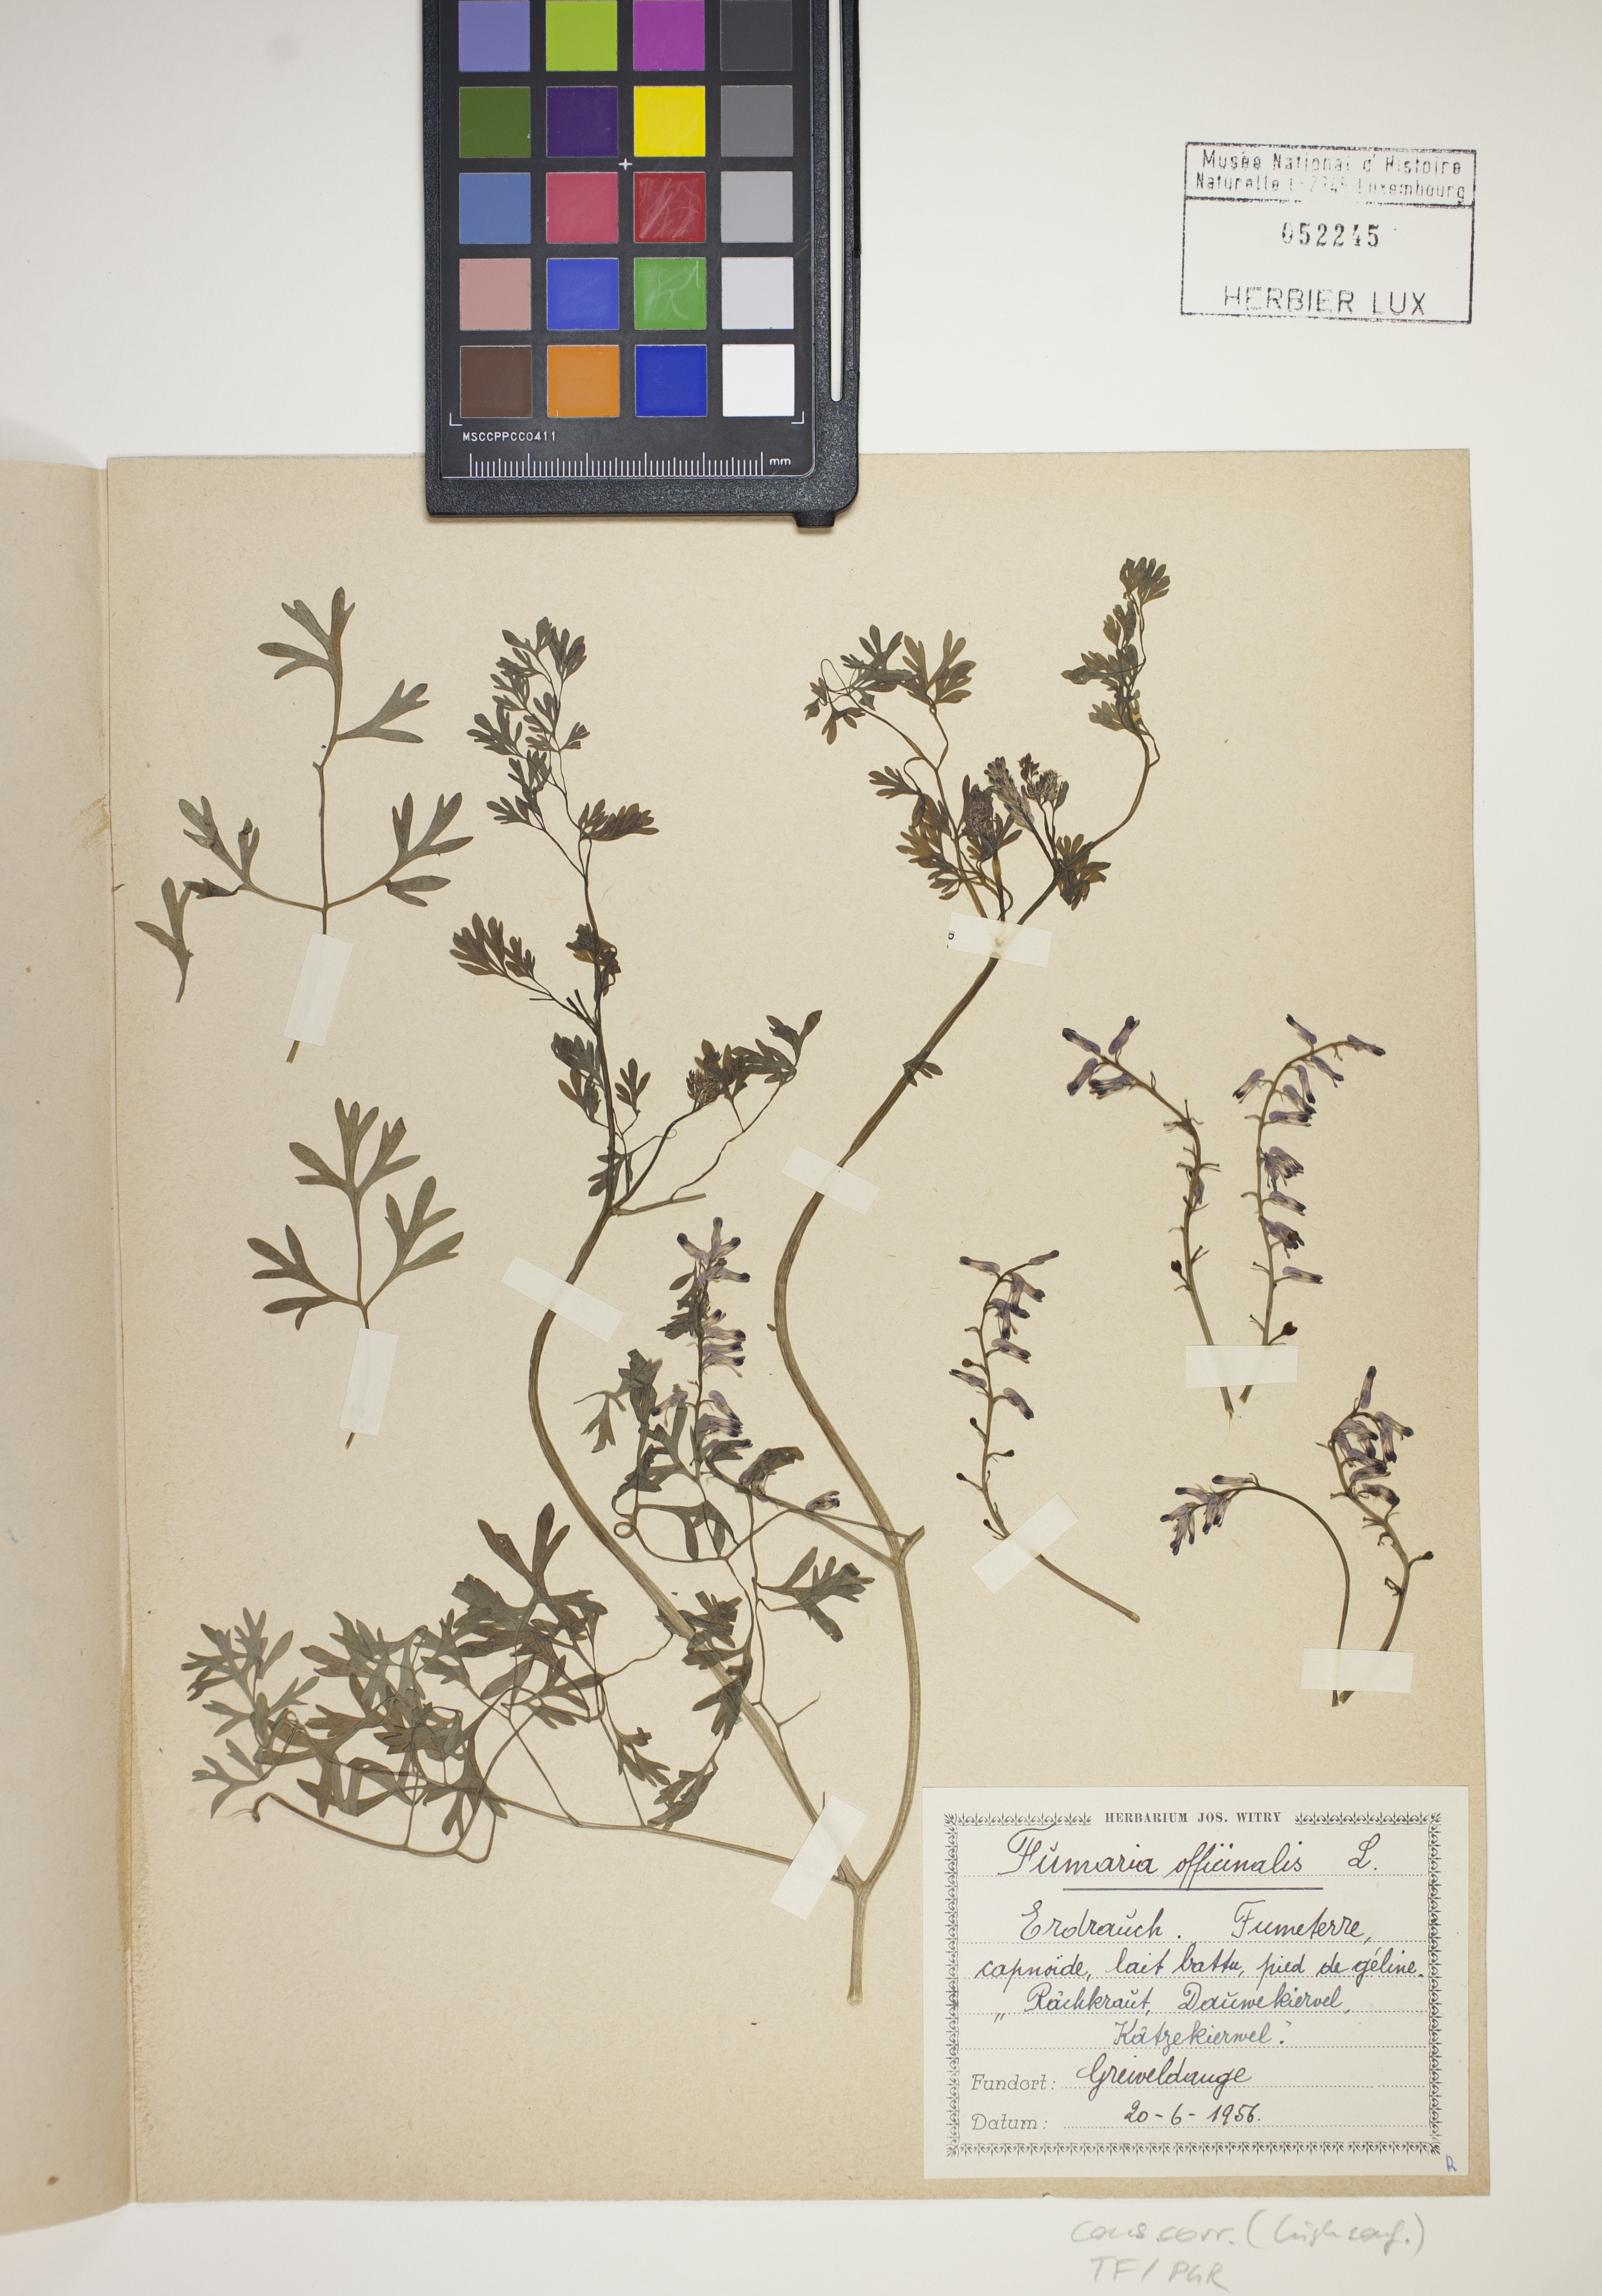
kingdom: Plantae
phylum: Tracheophyta
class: Magnoliopsida
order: Ranunculales
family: Papaveraceae
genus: Fumaria
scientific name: Fumaria officinalis
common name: Common fumitory
